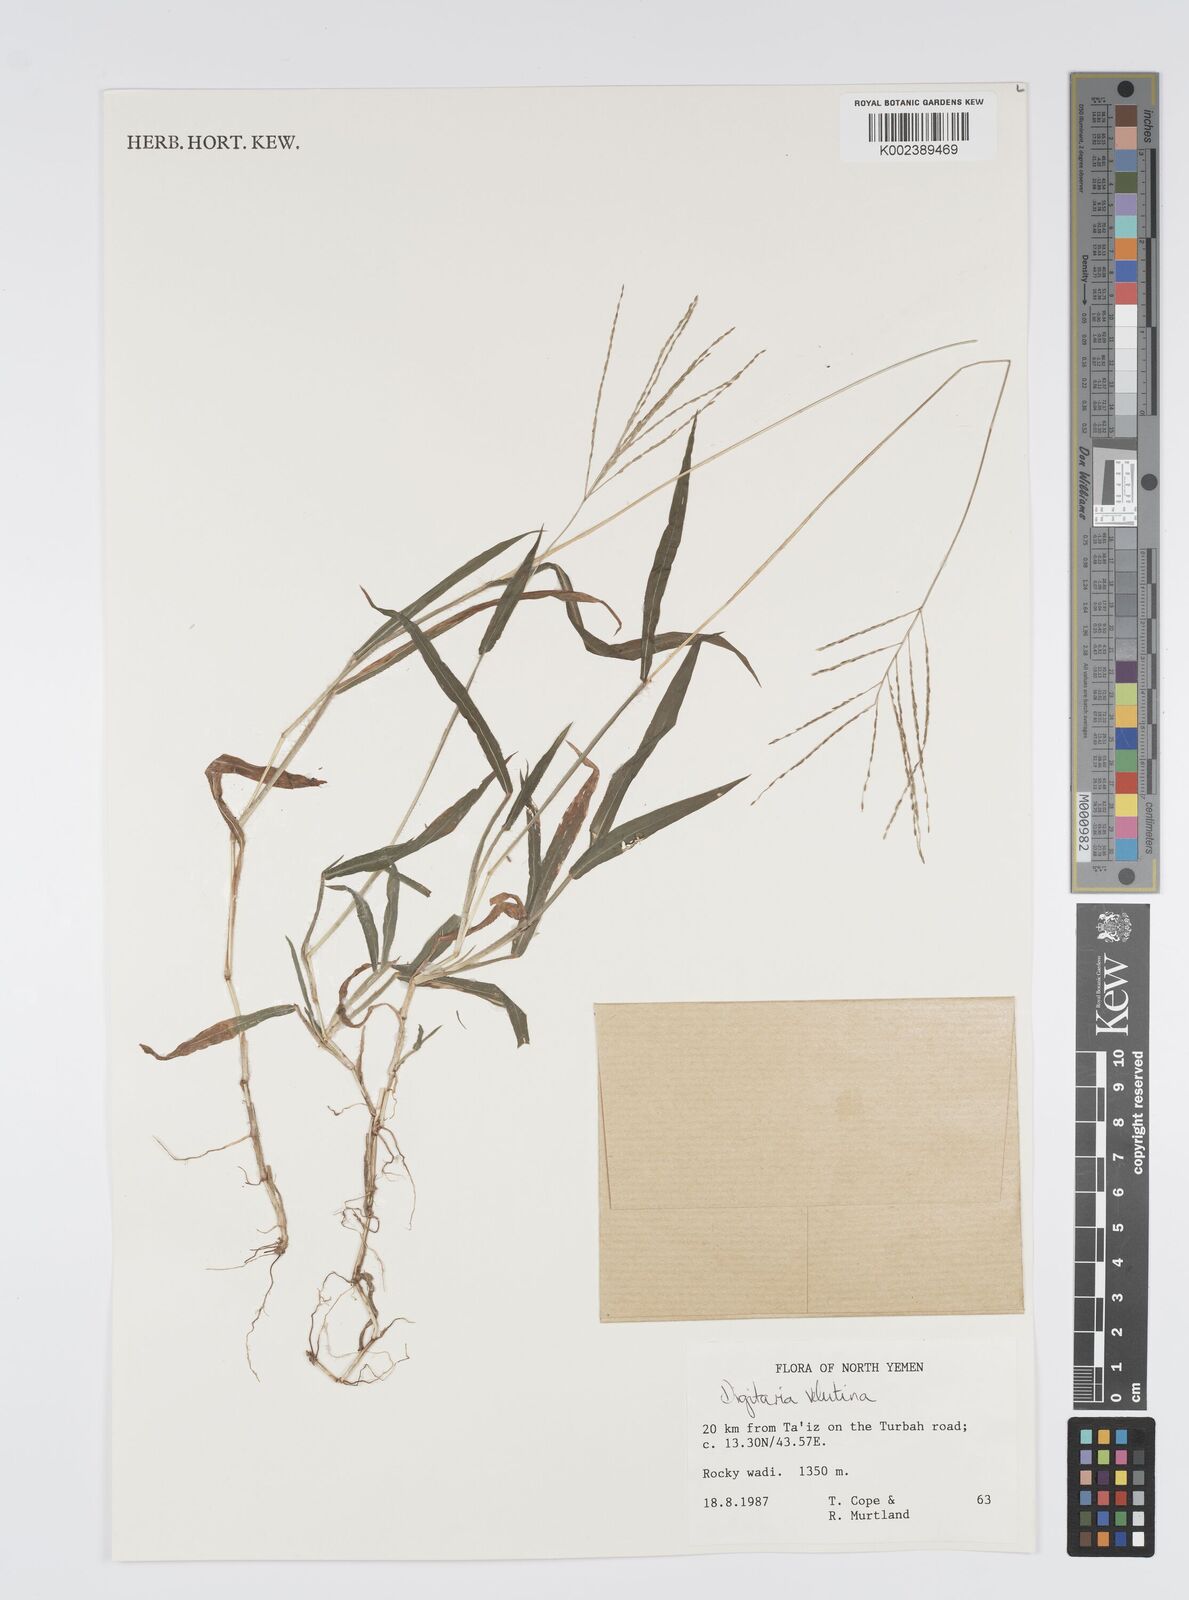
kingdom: Plantae
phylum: Tracheophyta
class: Liliopsida
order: Poales
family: Poaceae
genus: Digitaria
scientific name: Digitaria velutina
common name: Long-plume finger grass
